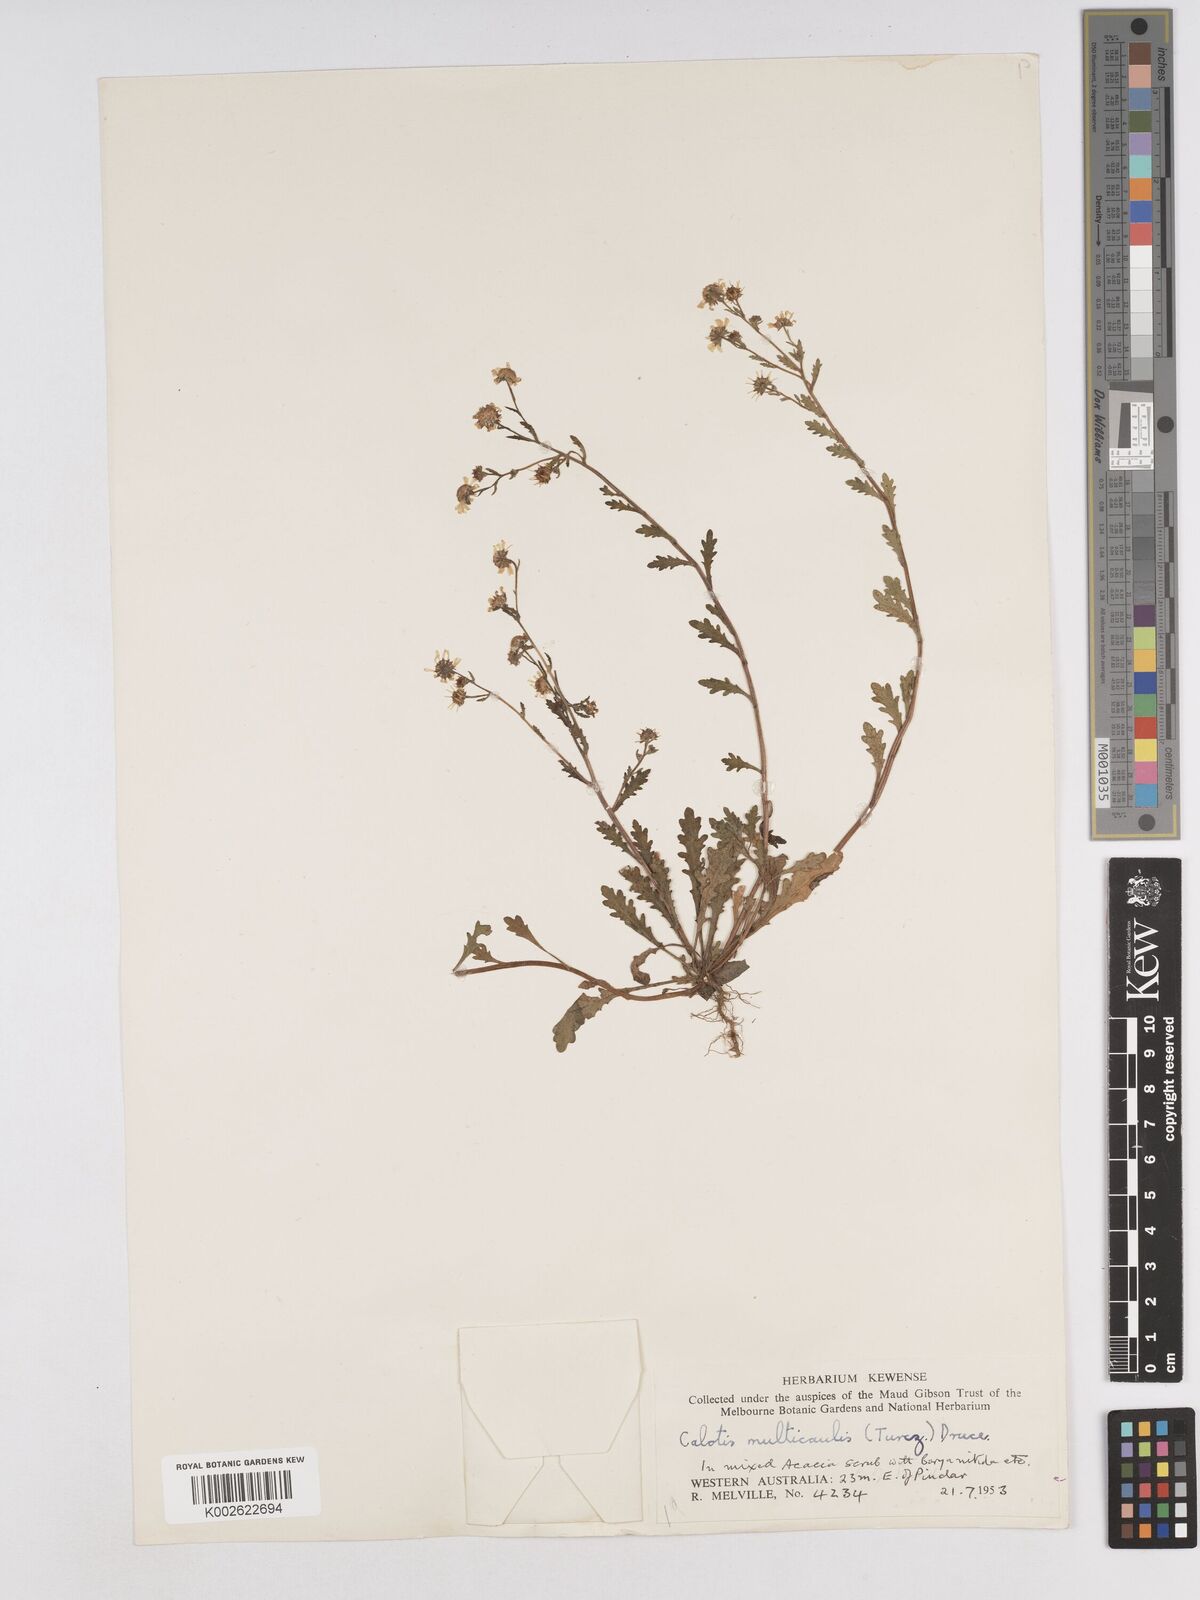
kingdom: Plantae
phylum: Tracheophyta
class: Magnoliopsida
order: Asterales
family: Asteraceae
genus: Calotis
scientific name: Calotis multicaulis
